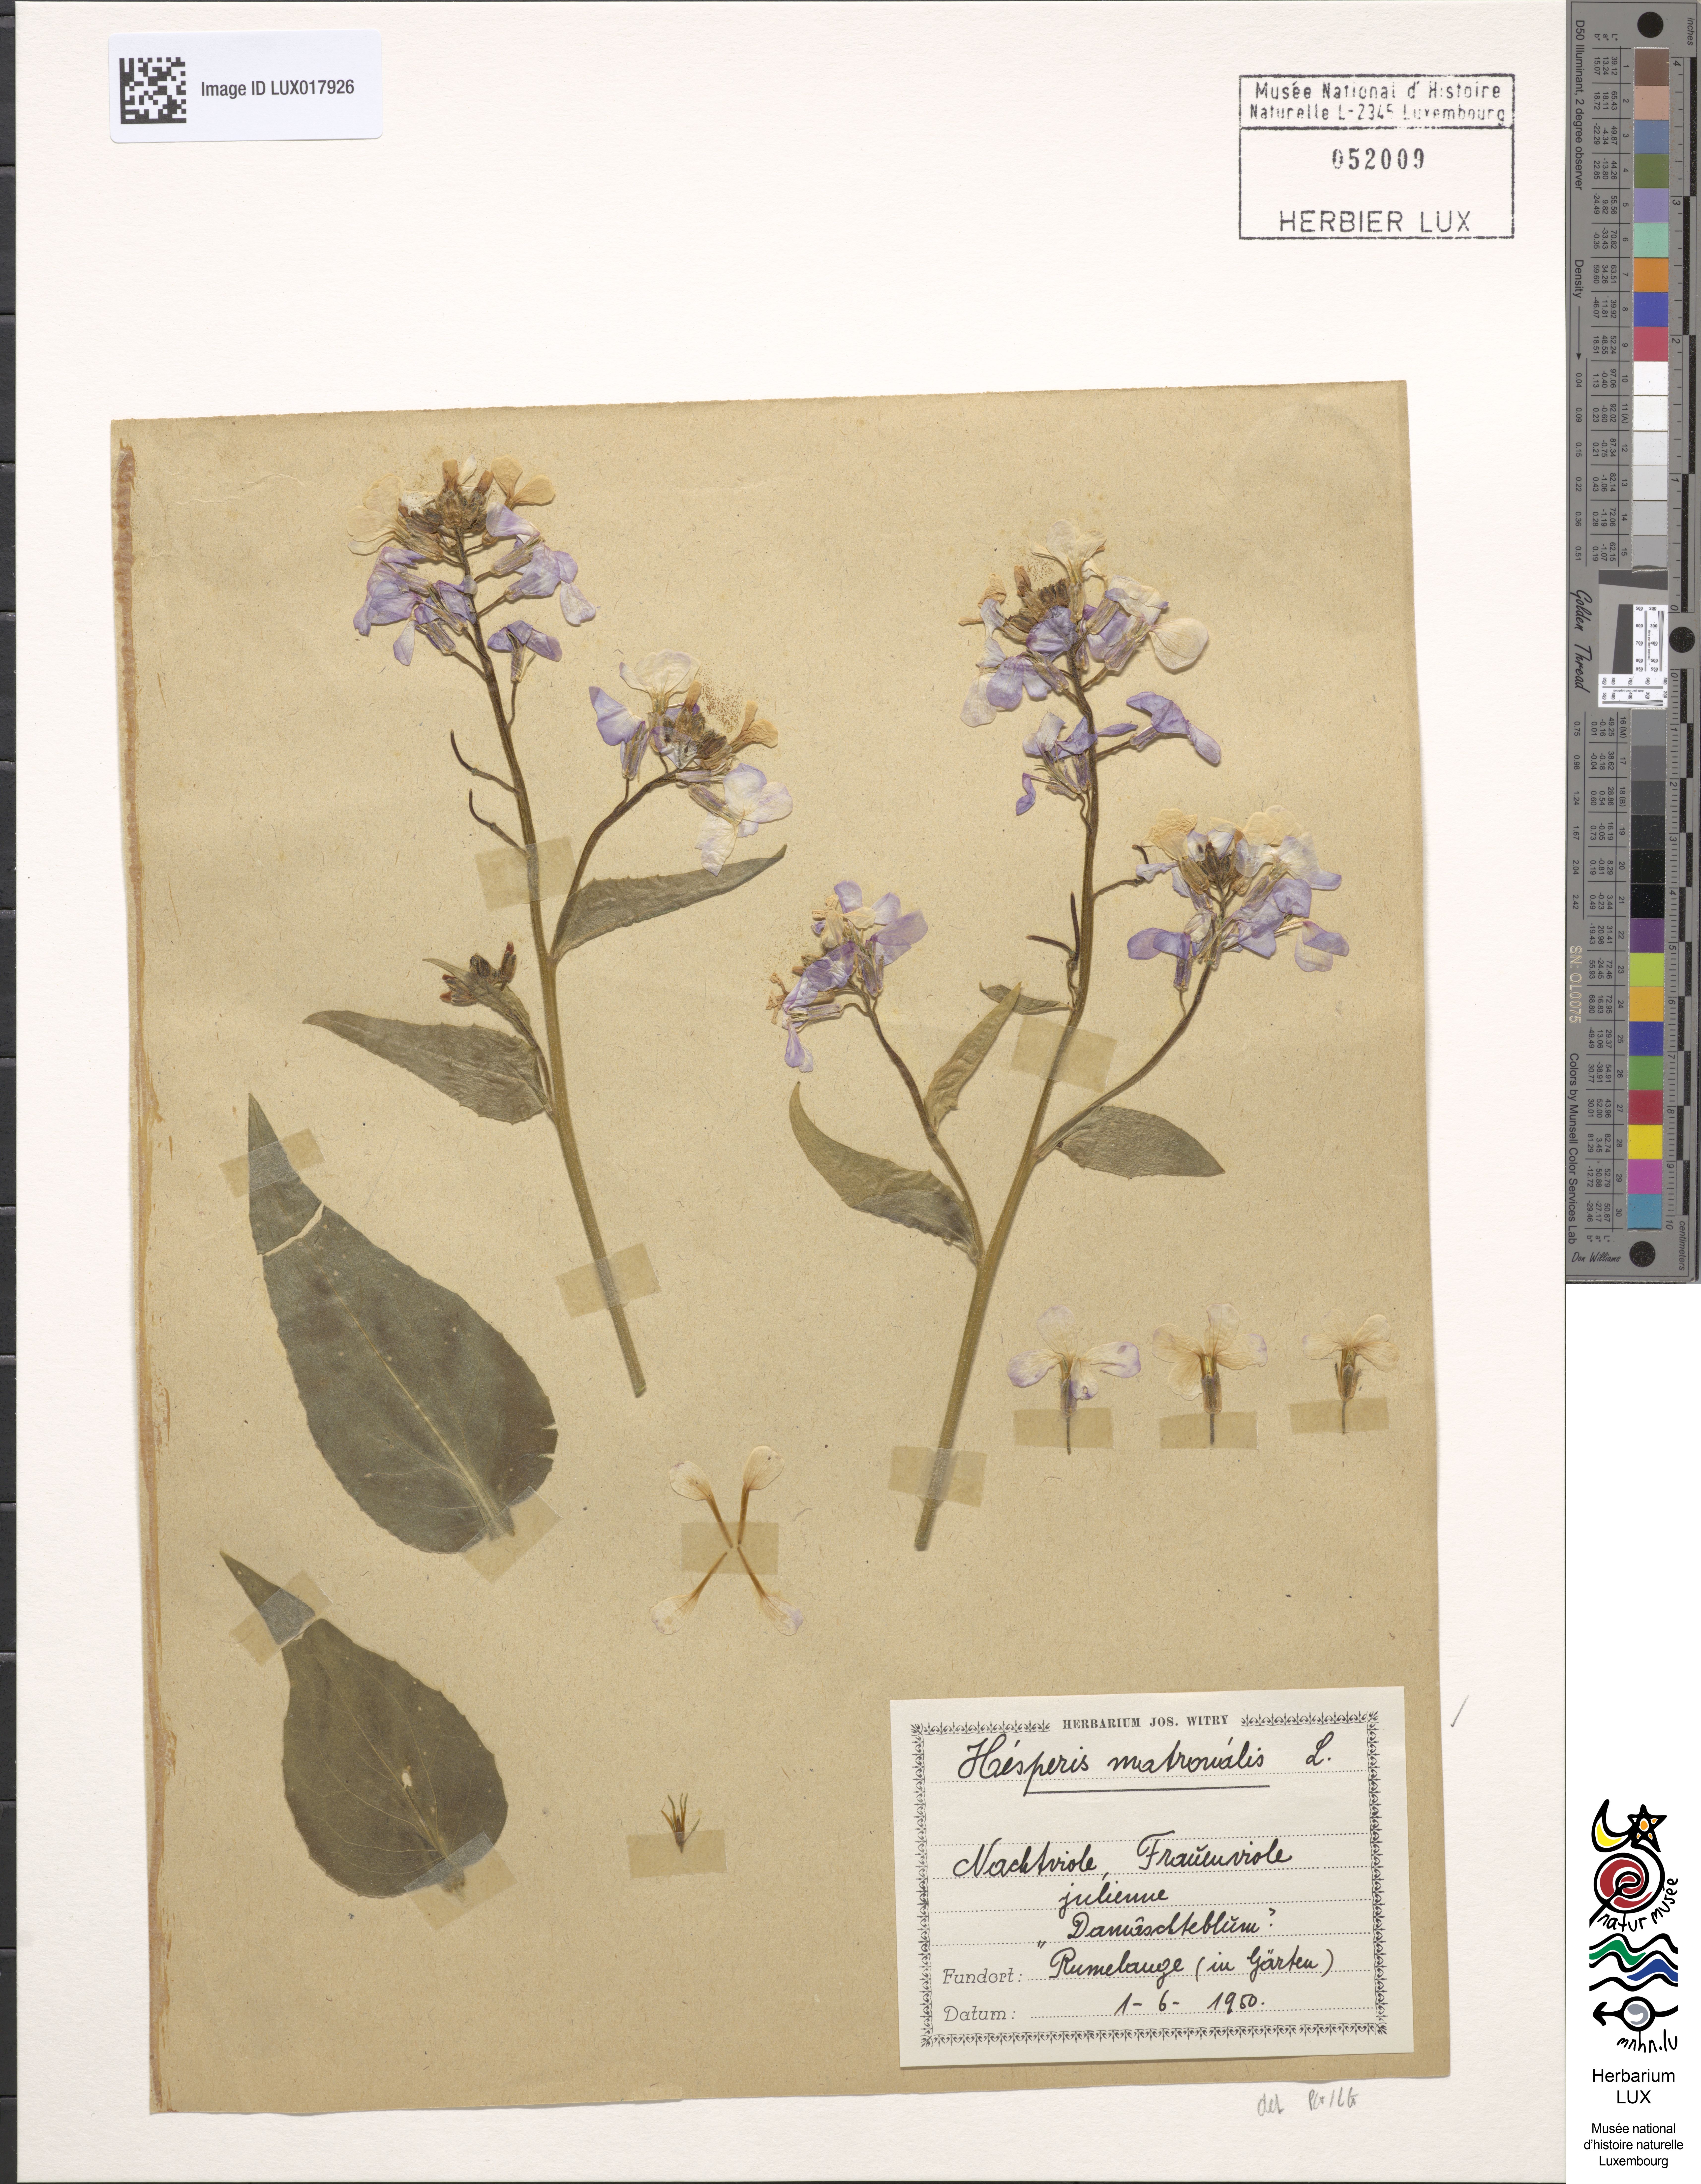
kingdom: Plantae
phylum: Tracheophyta
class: Magnoliopsida
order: Brassicales
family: Brassicaceae
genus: Hesperis
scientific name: Hesperis matronalis
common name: Dame's-violet
